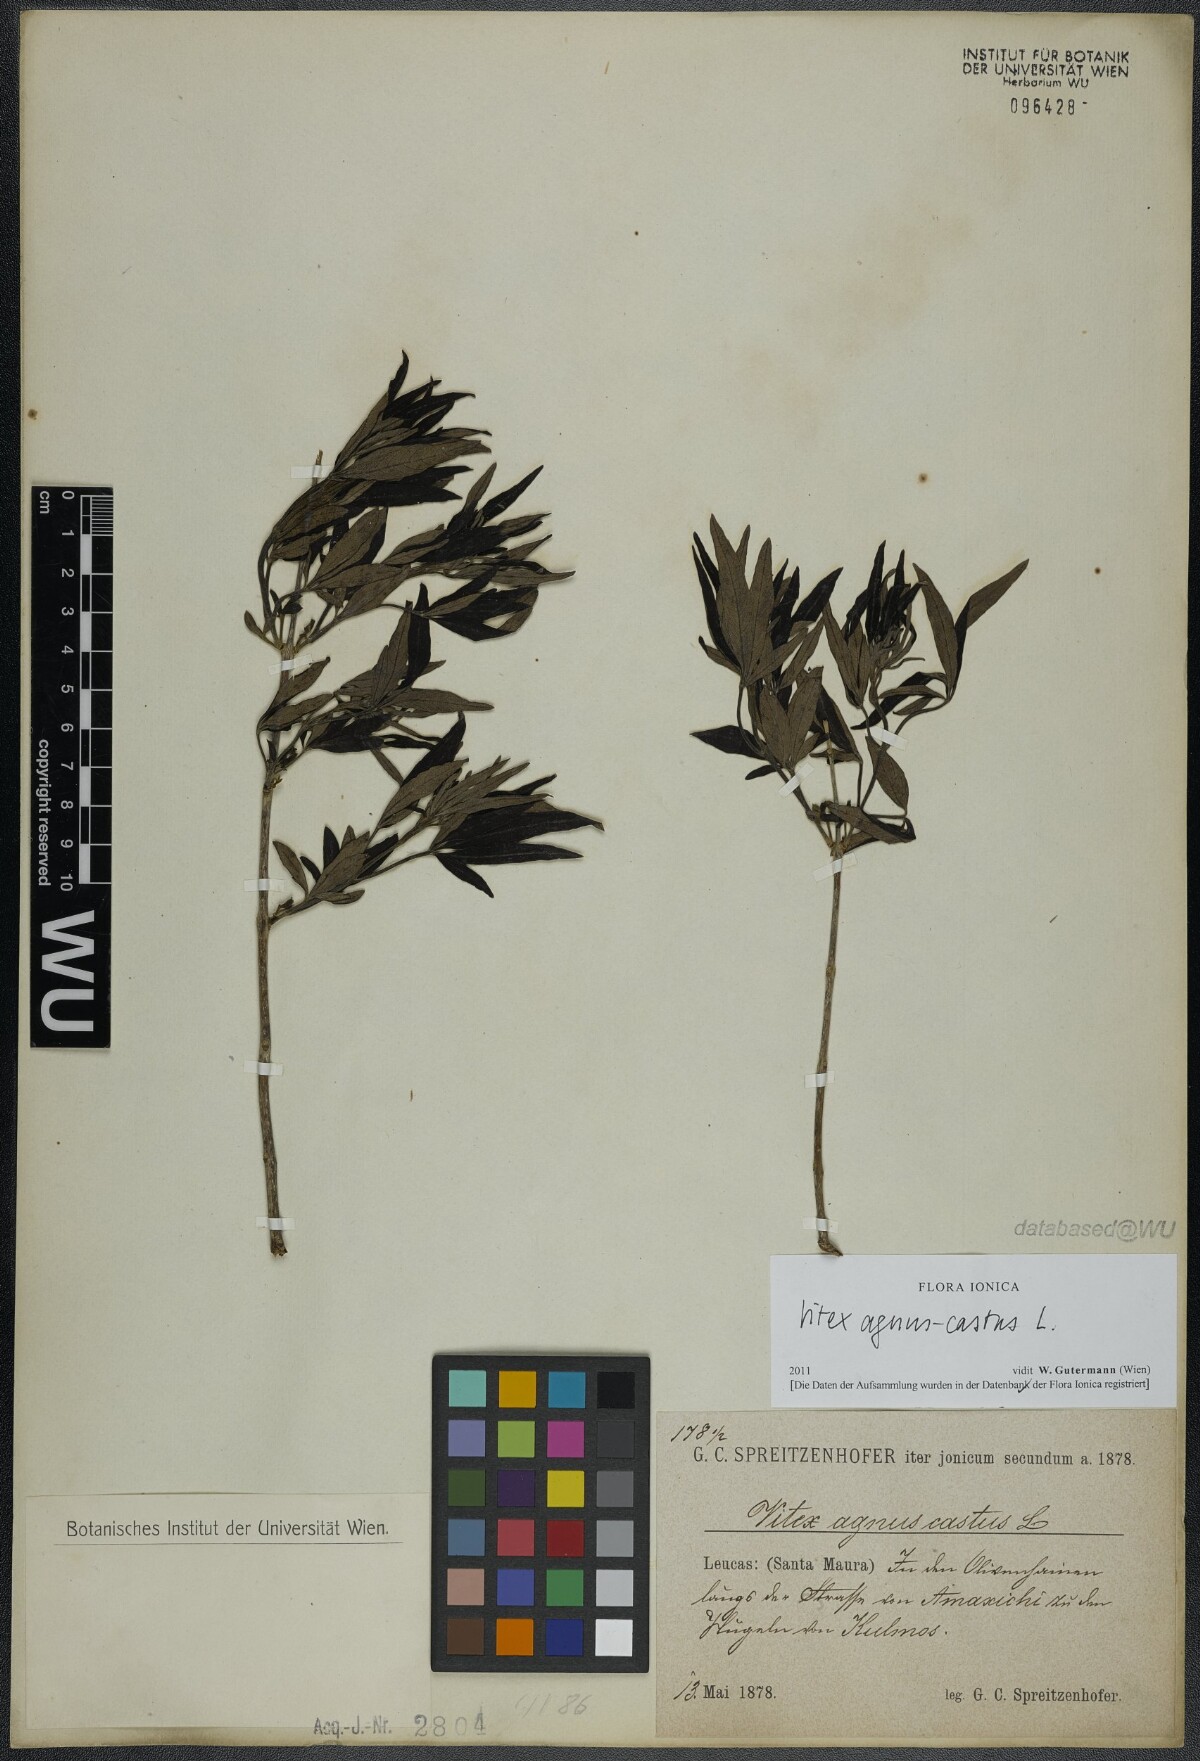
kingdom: Plantae
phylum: Tracheophyta
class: Magnoliopsida
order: Lamiales
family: Lamiaceae
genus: Vitex
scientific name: Vitex agnus-castus
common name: Chasteberry
